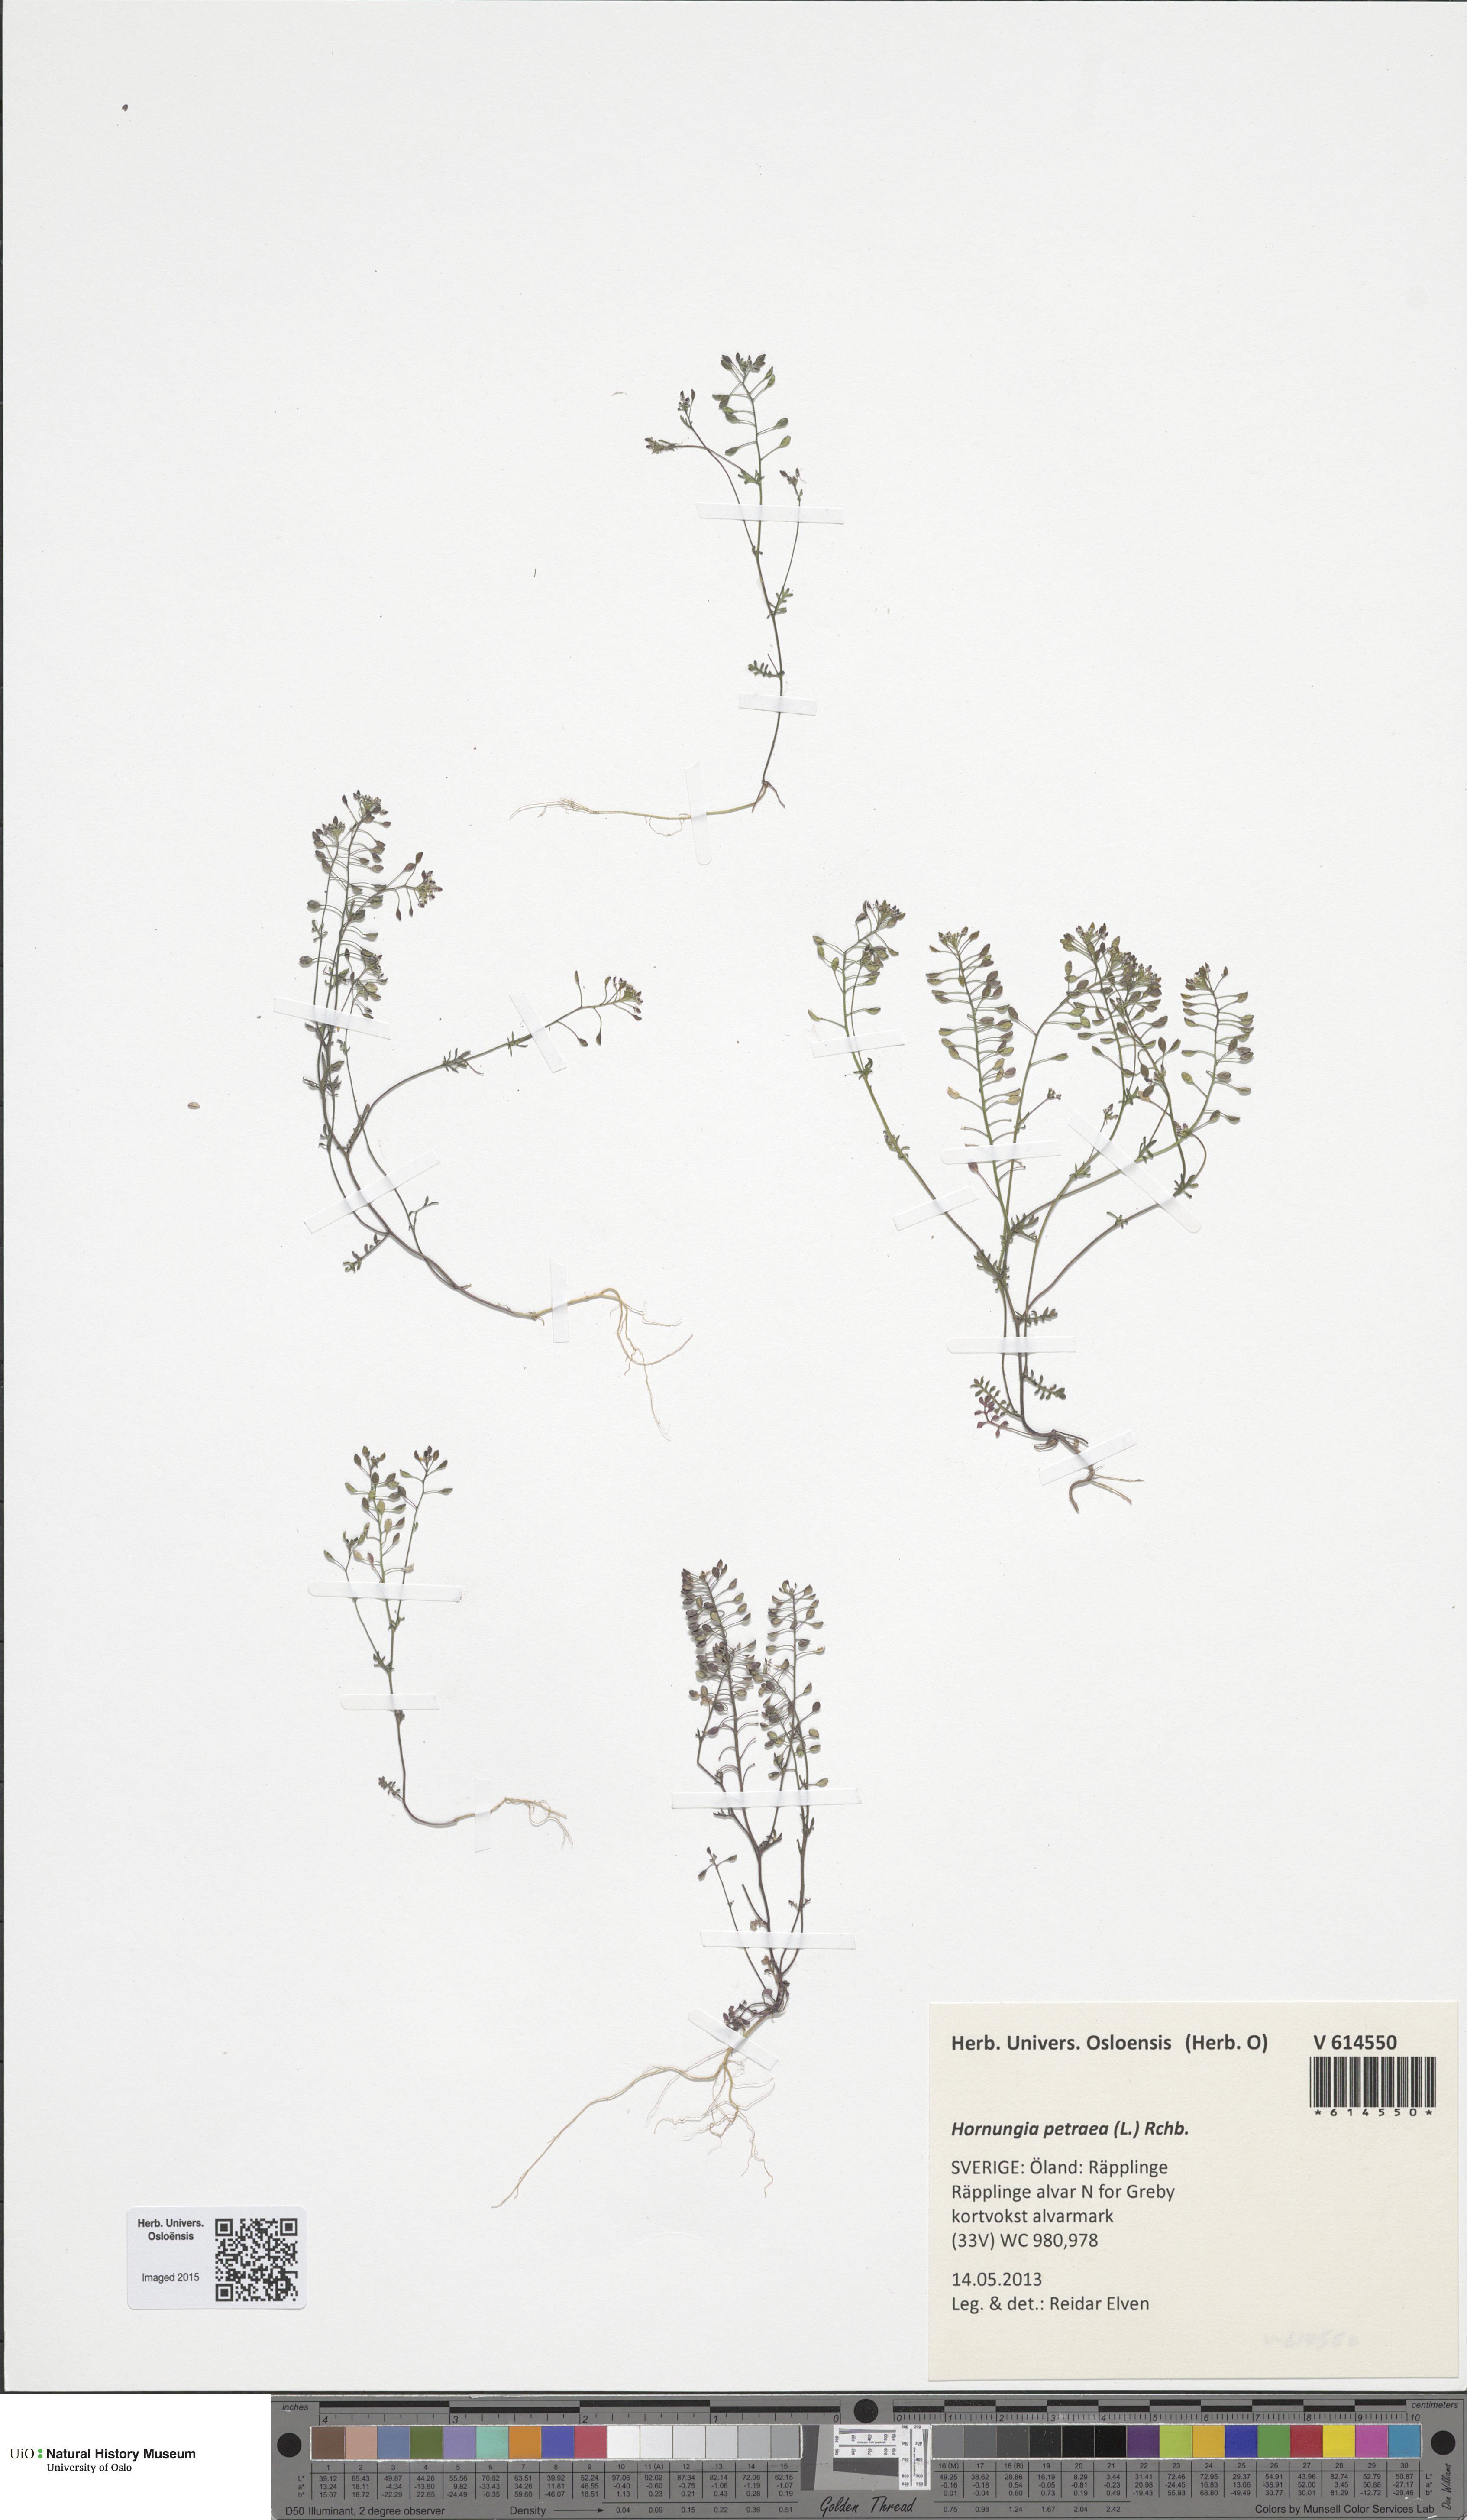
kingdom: Plantae
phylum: Tracheophyta
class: Magnoliopsida
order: Brassicales
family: Brassicaceae
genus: Hornungia
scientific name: Hornungia petraea
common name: Hutchinsia
